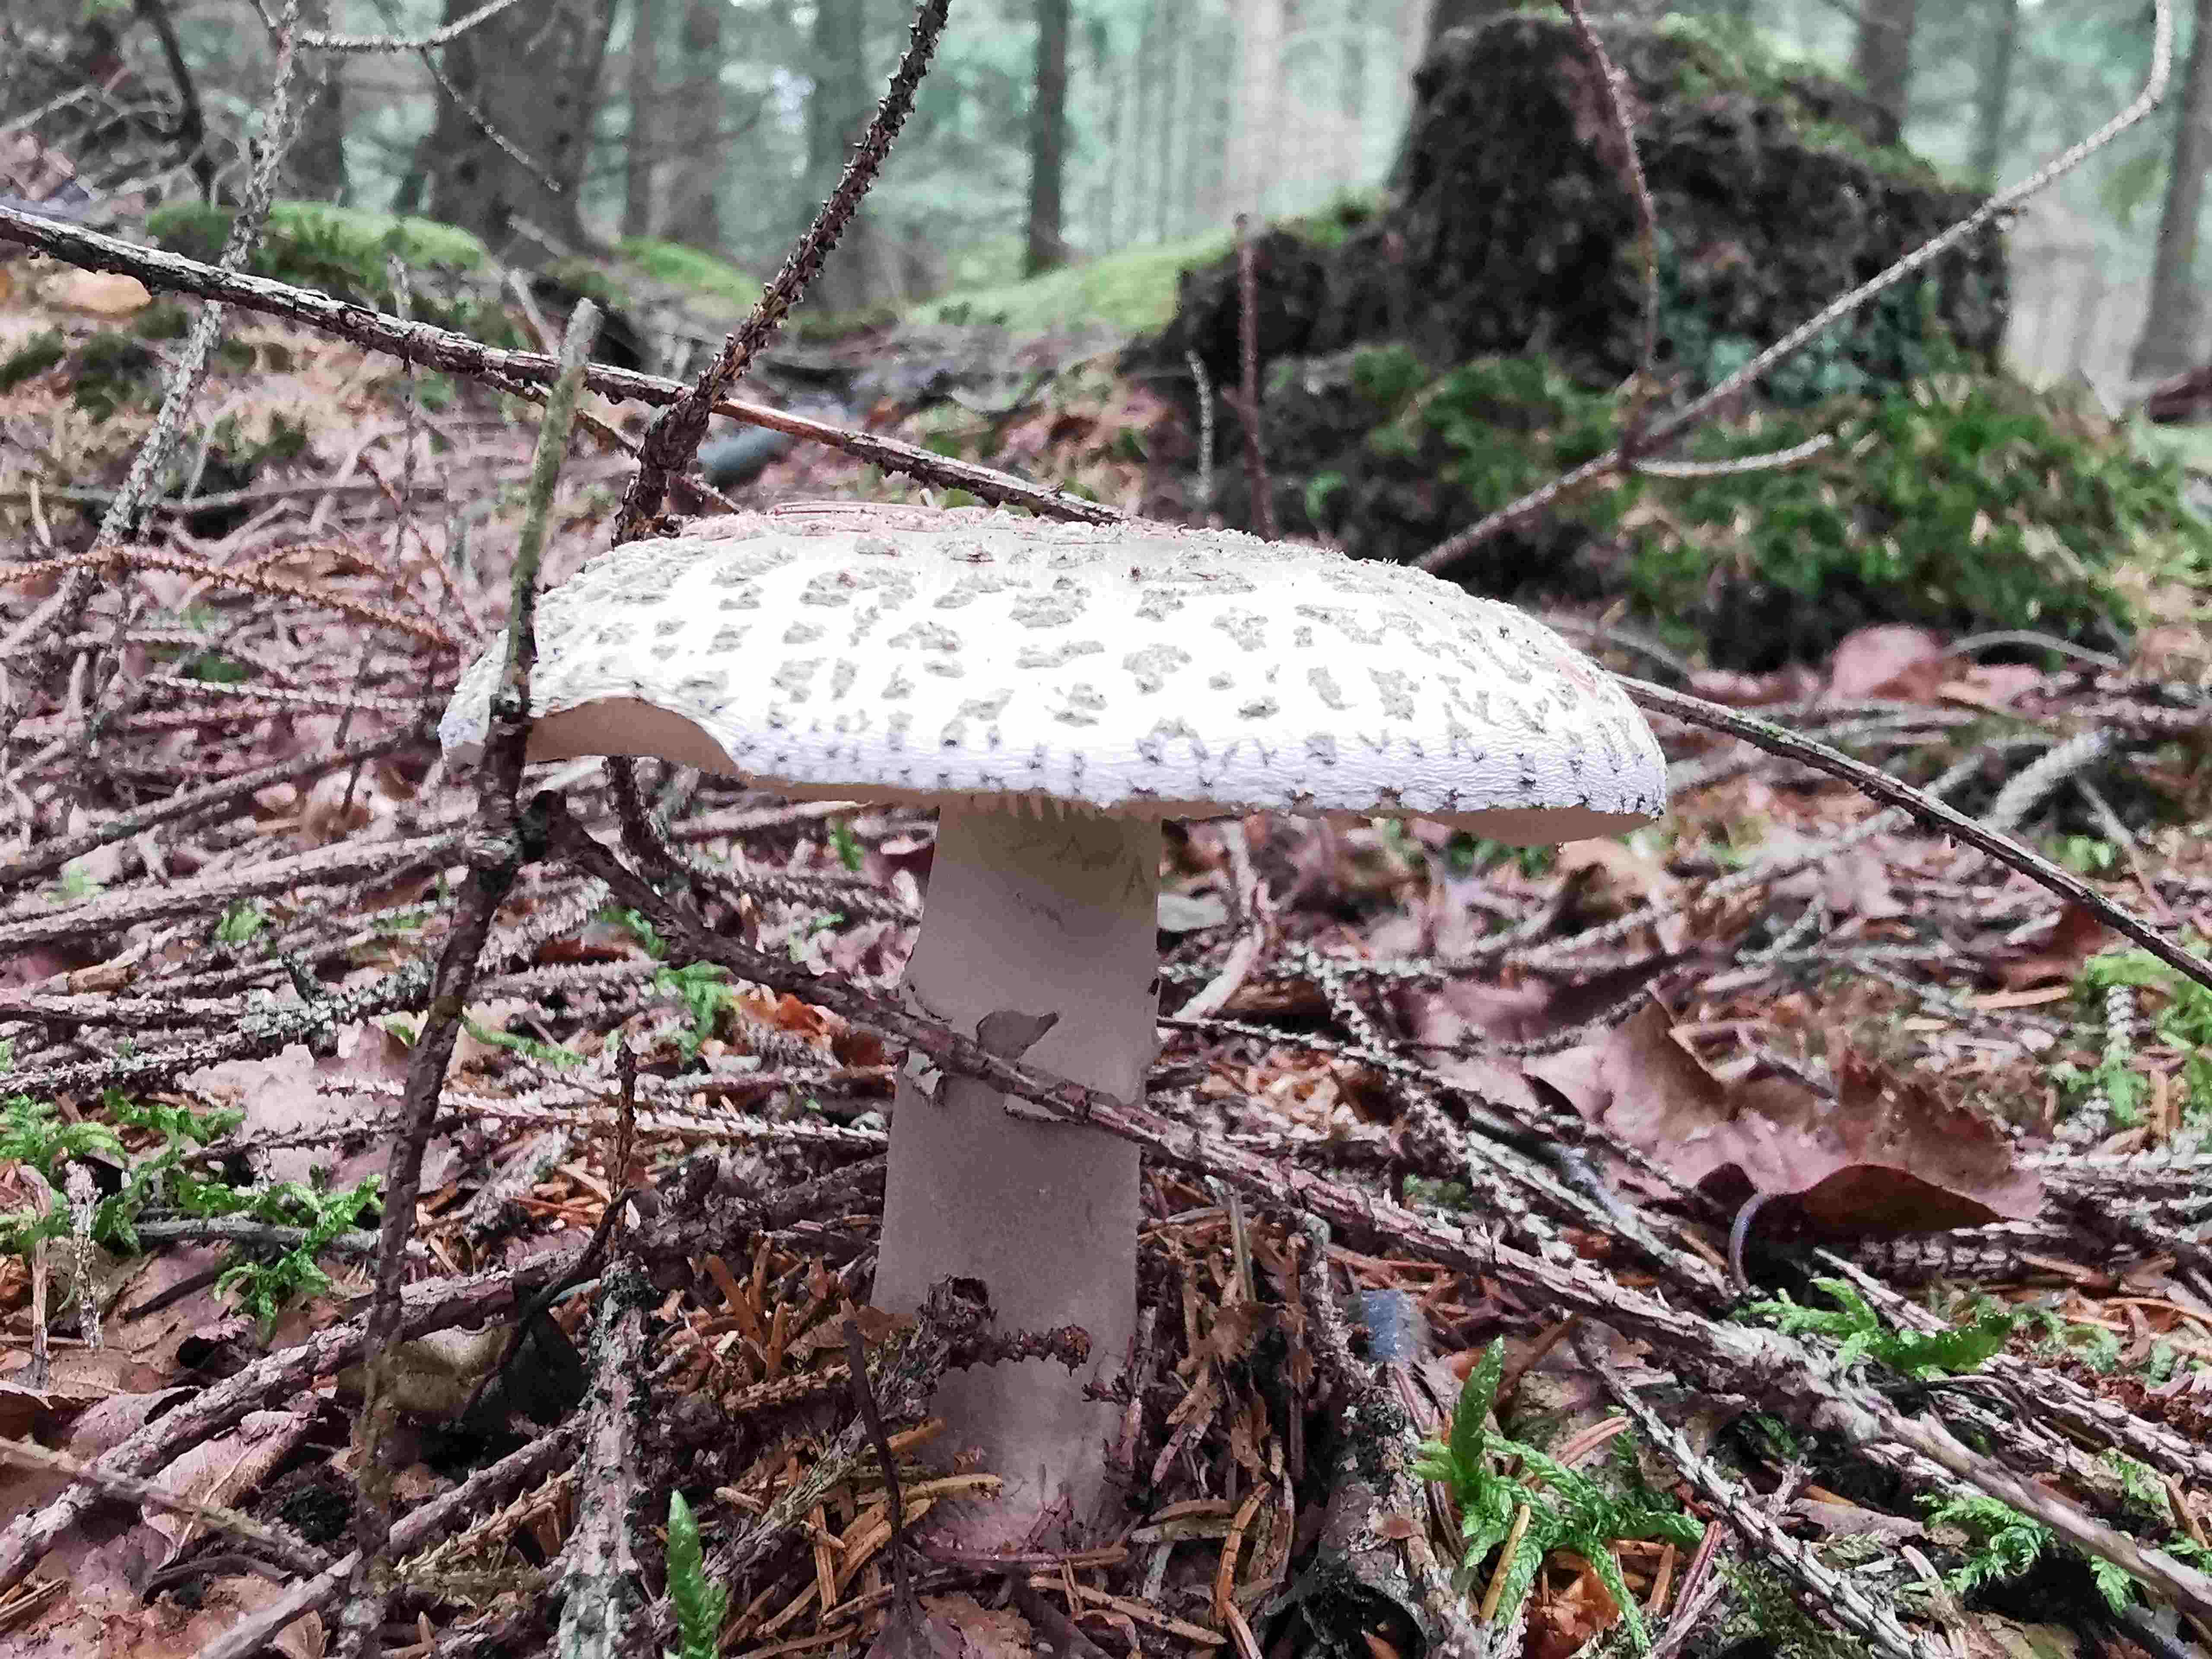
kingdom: Fungi
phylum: Basidiomycota
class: Agaricomycetes
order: Agaricales
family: Amanitaceae
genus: Amanita
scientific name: Amanita rubescens
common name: rødmende fluesvamp
